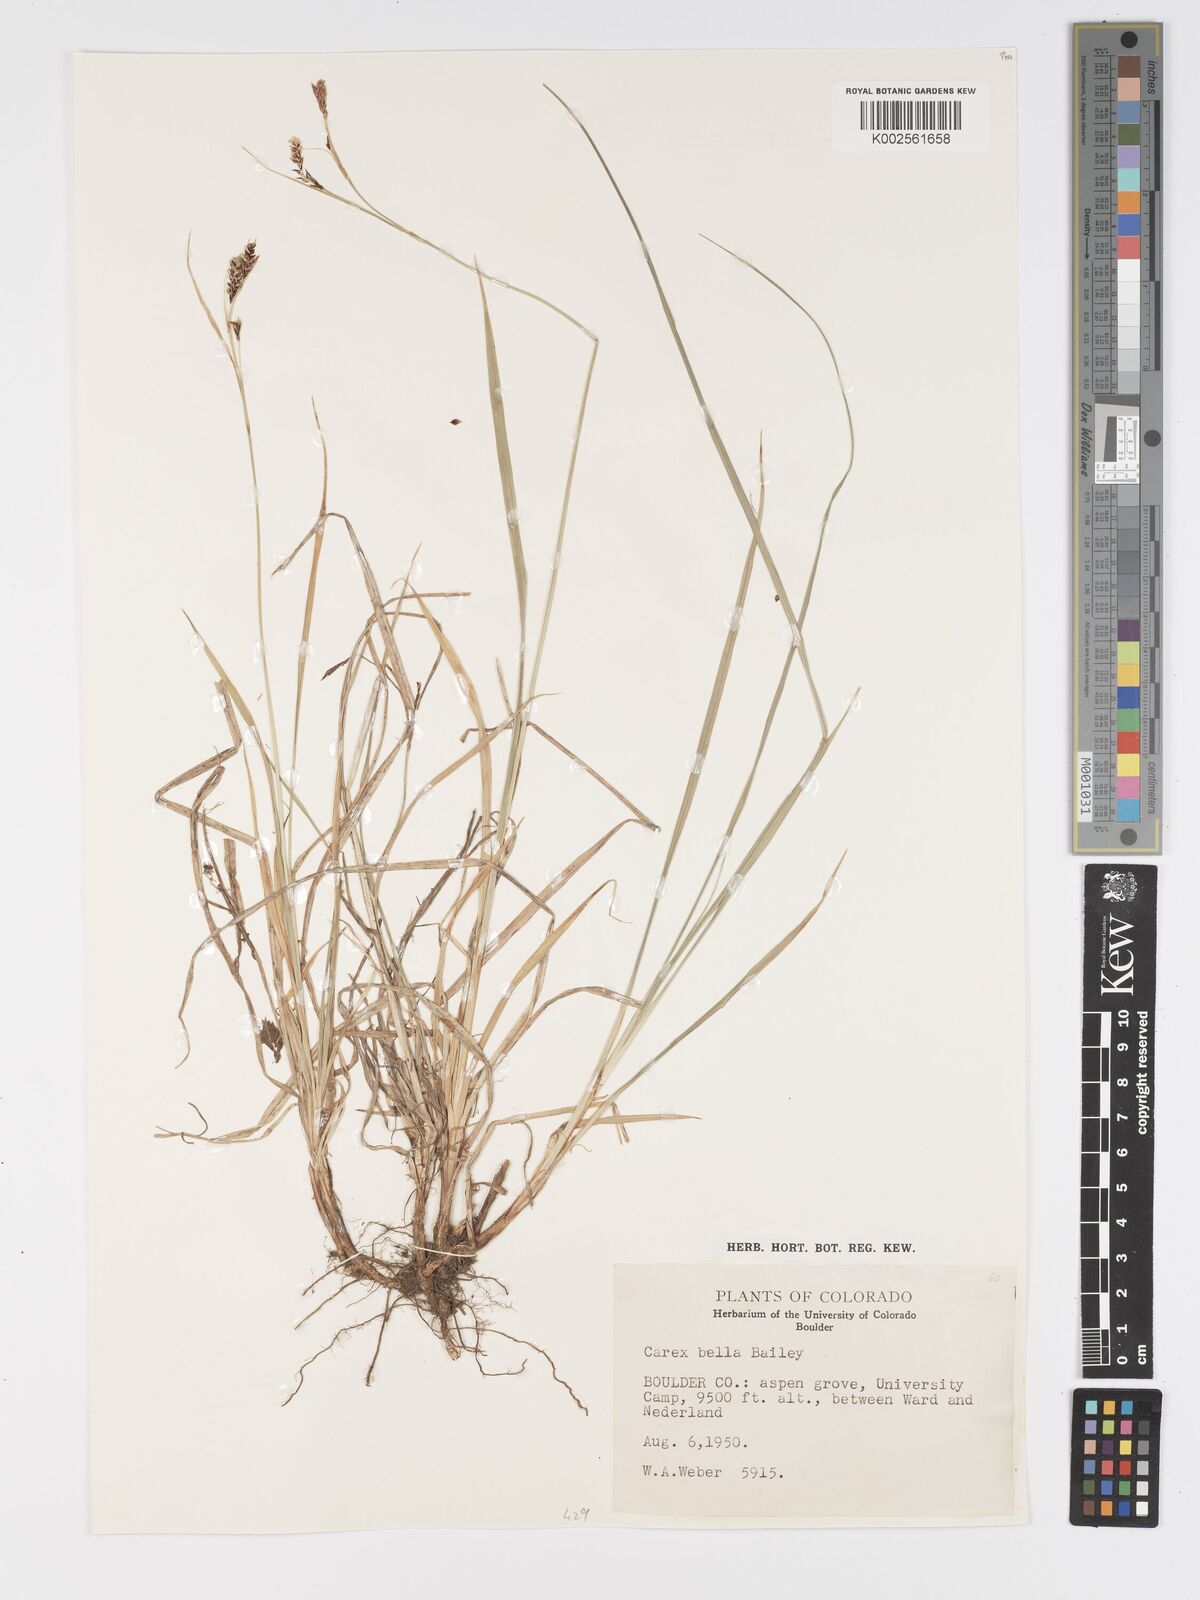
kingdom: Plantae
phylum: Tracheophyta
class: Liliopsida
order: Poales
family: Cyperaceae
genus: Carex
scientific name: Carex bella
